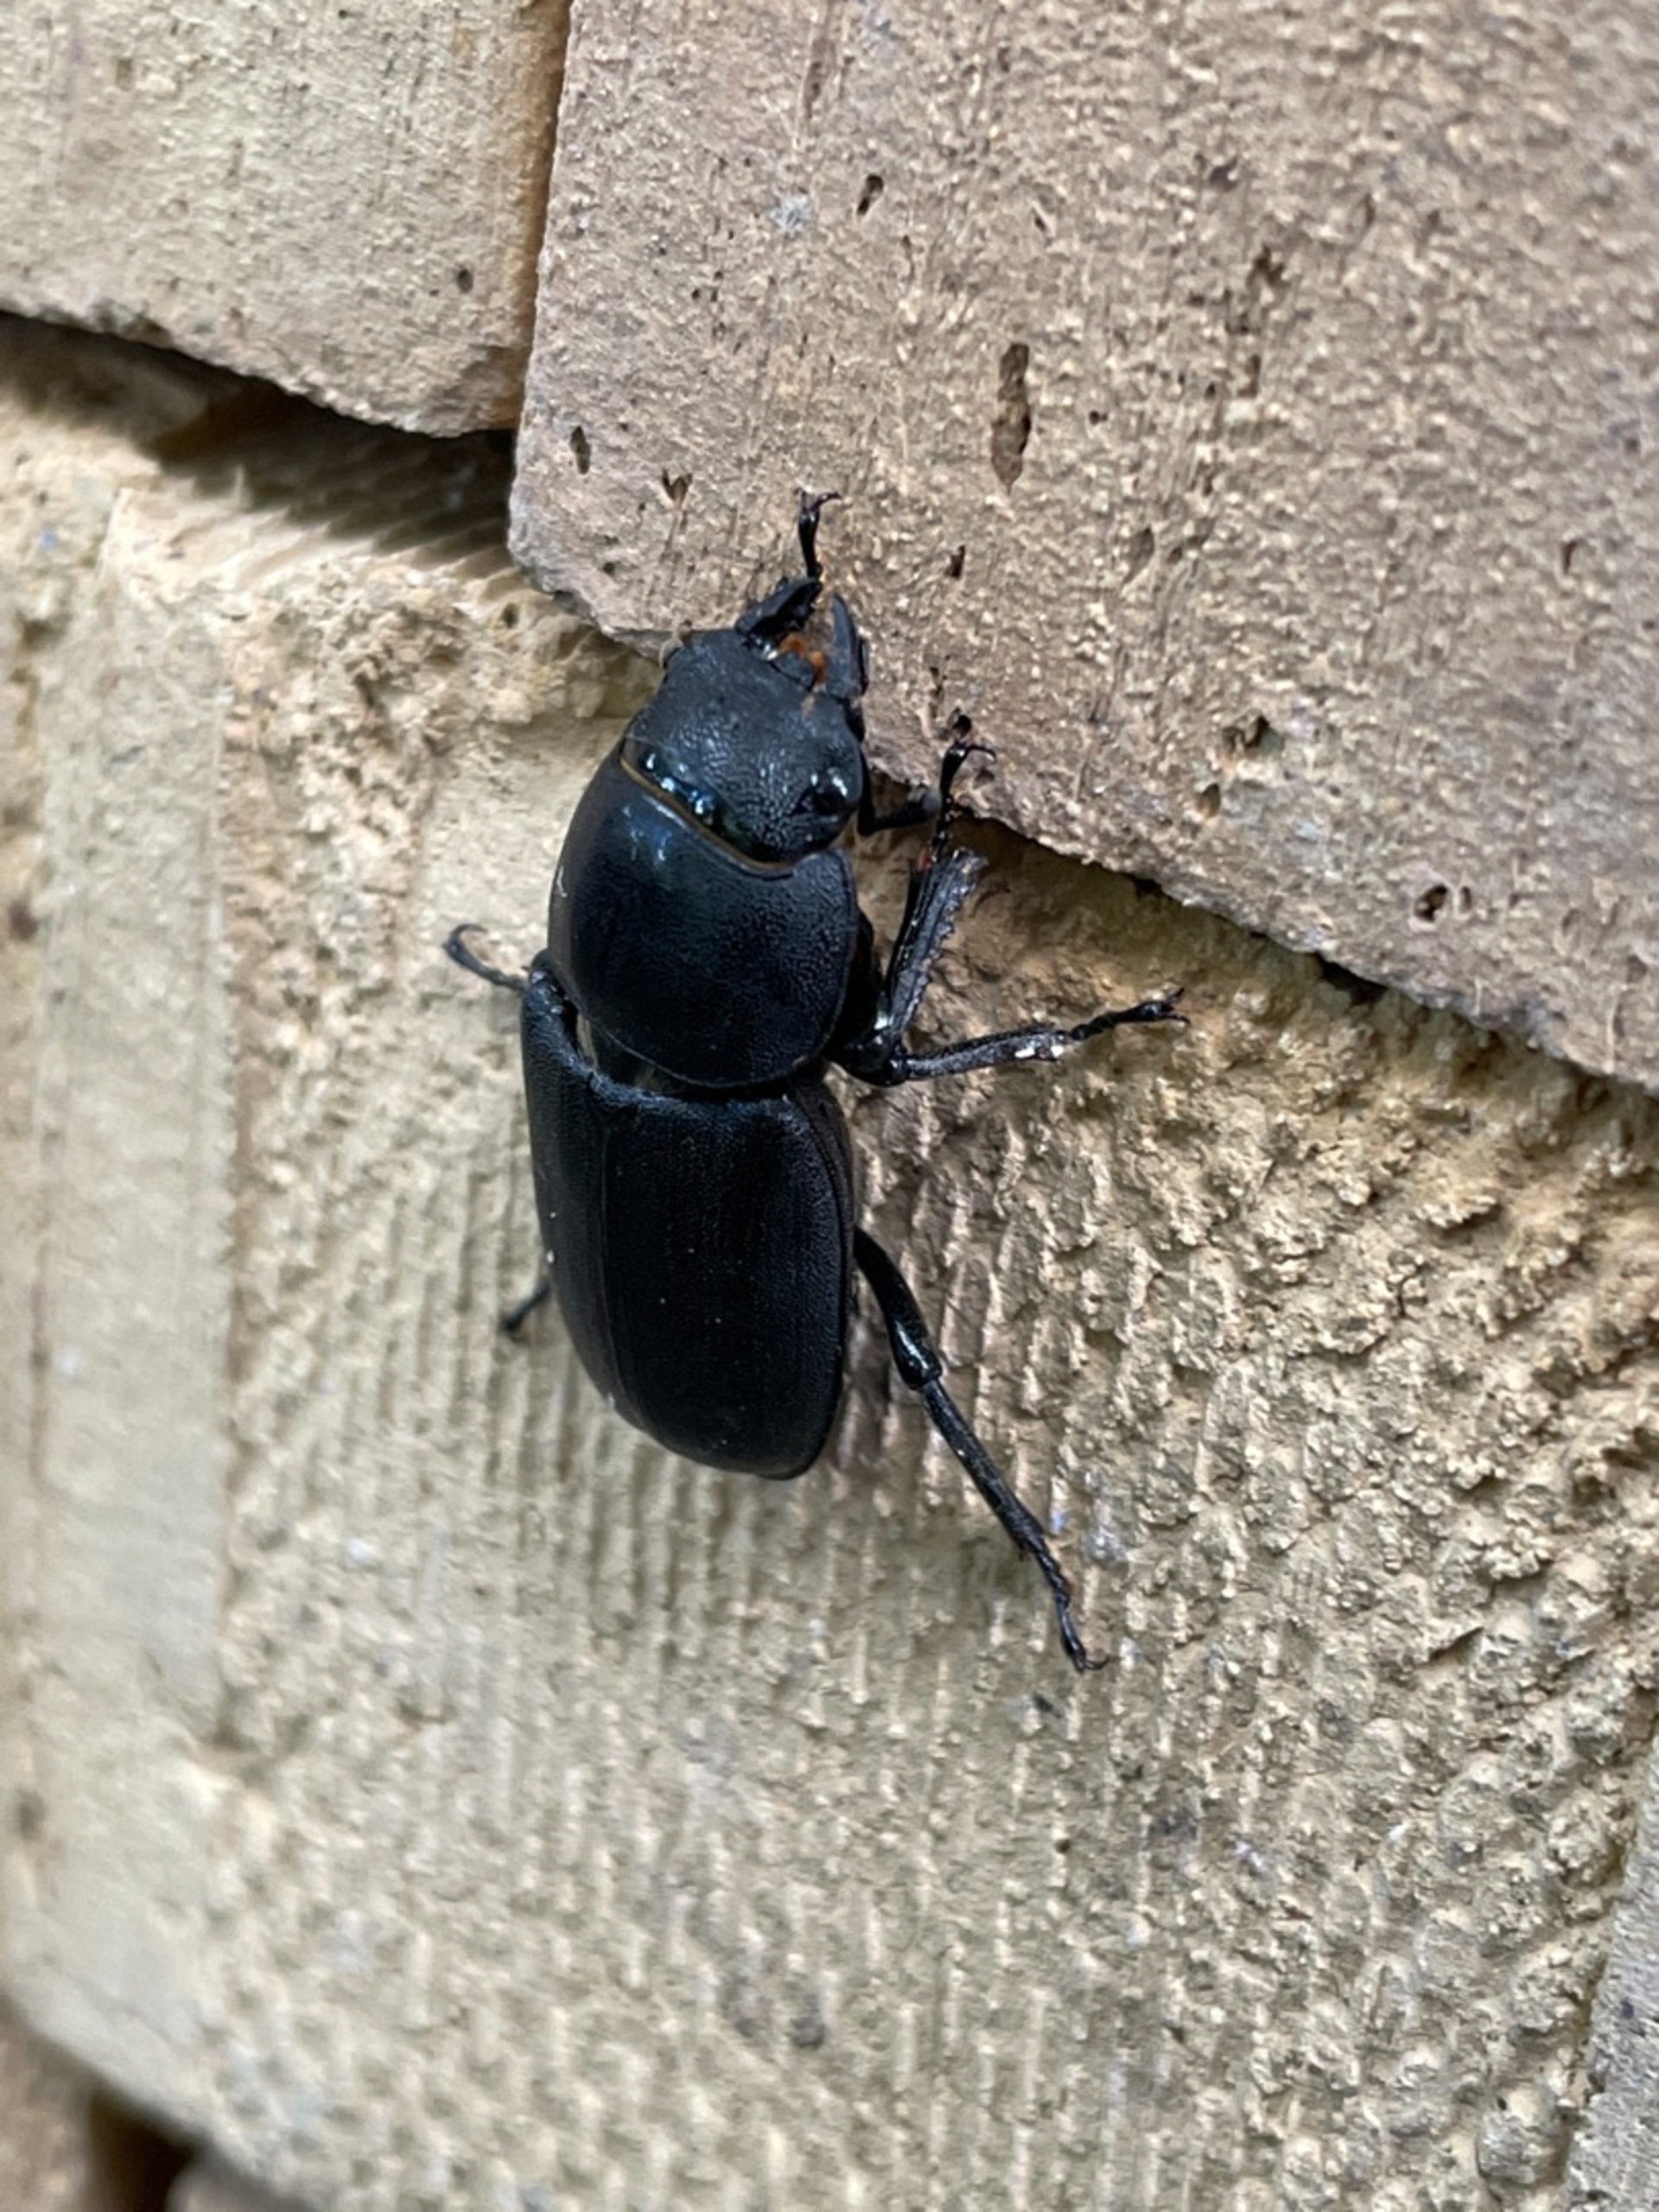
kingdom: Animalia
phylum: Arthropoda
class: Insecta
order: Coleoptera
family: Lucanidae
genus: Dorcus
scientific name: Dorcus parallelipipedus
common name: Bøghjort
